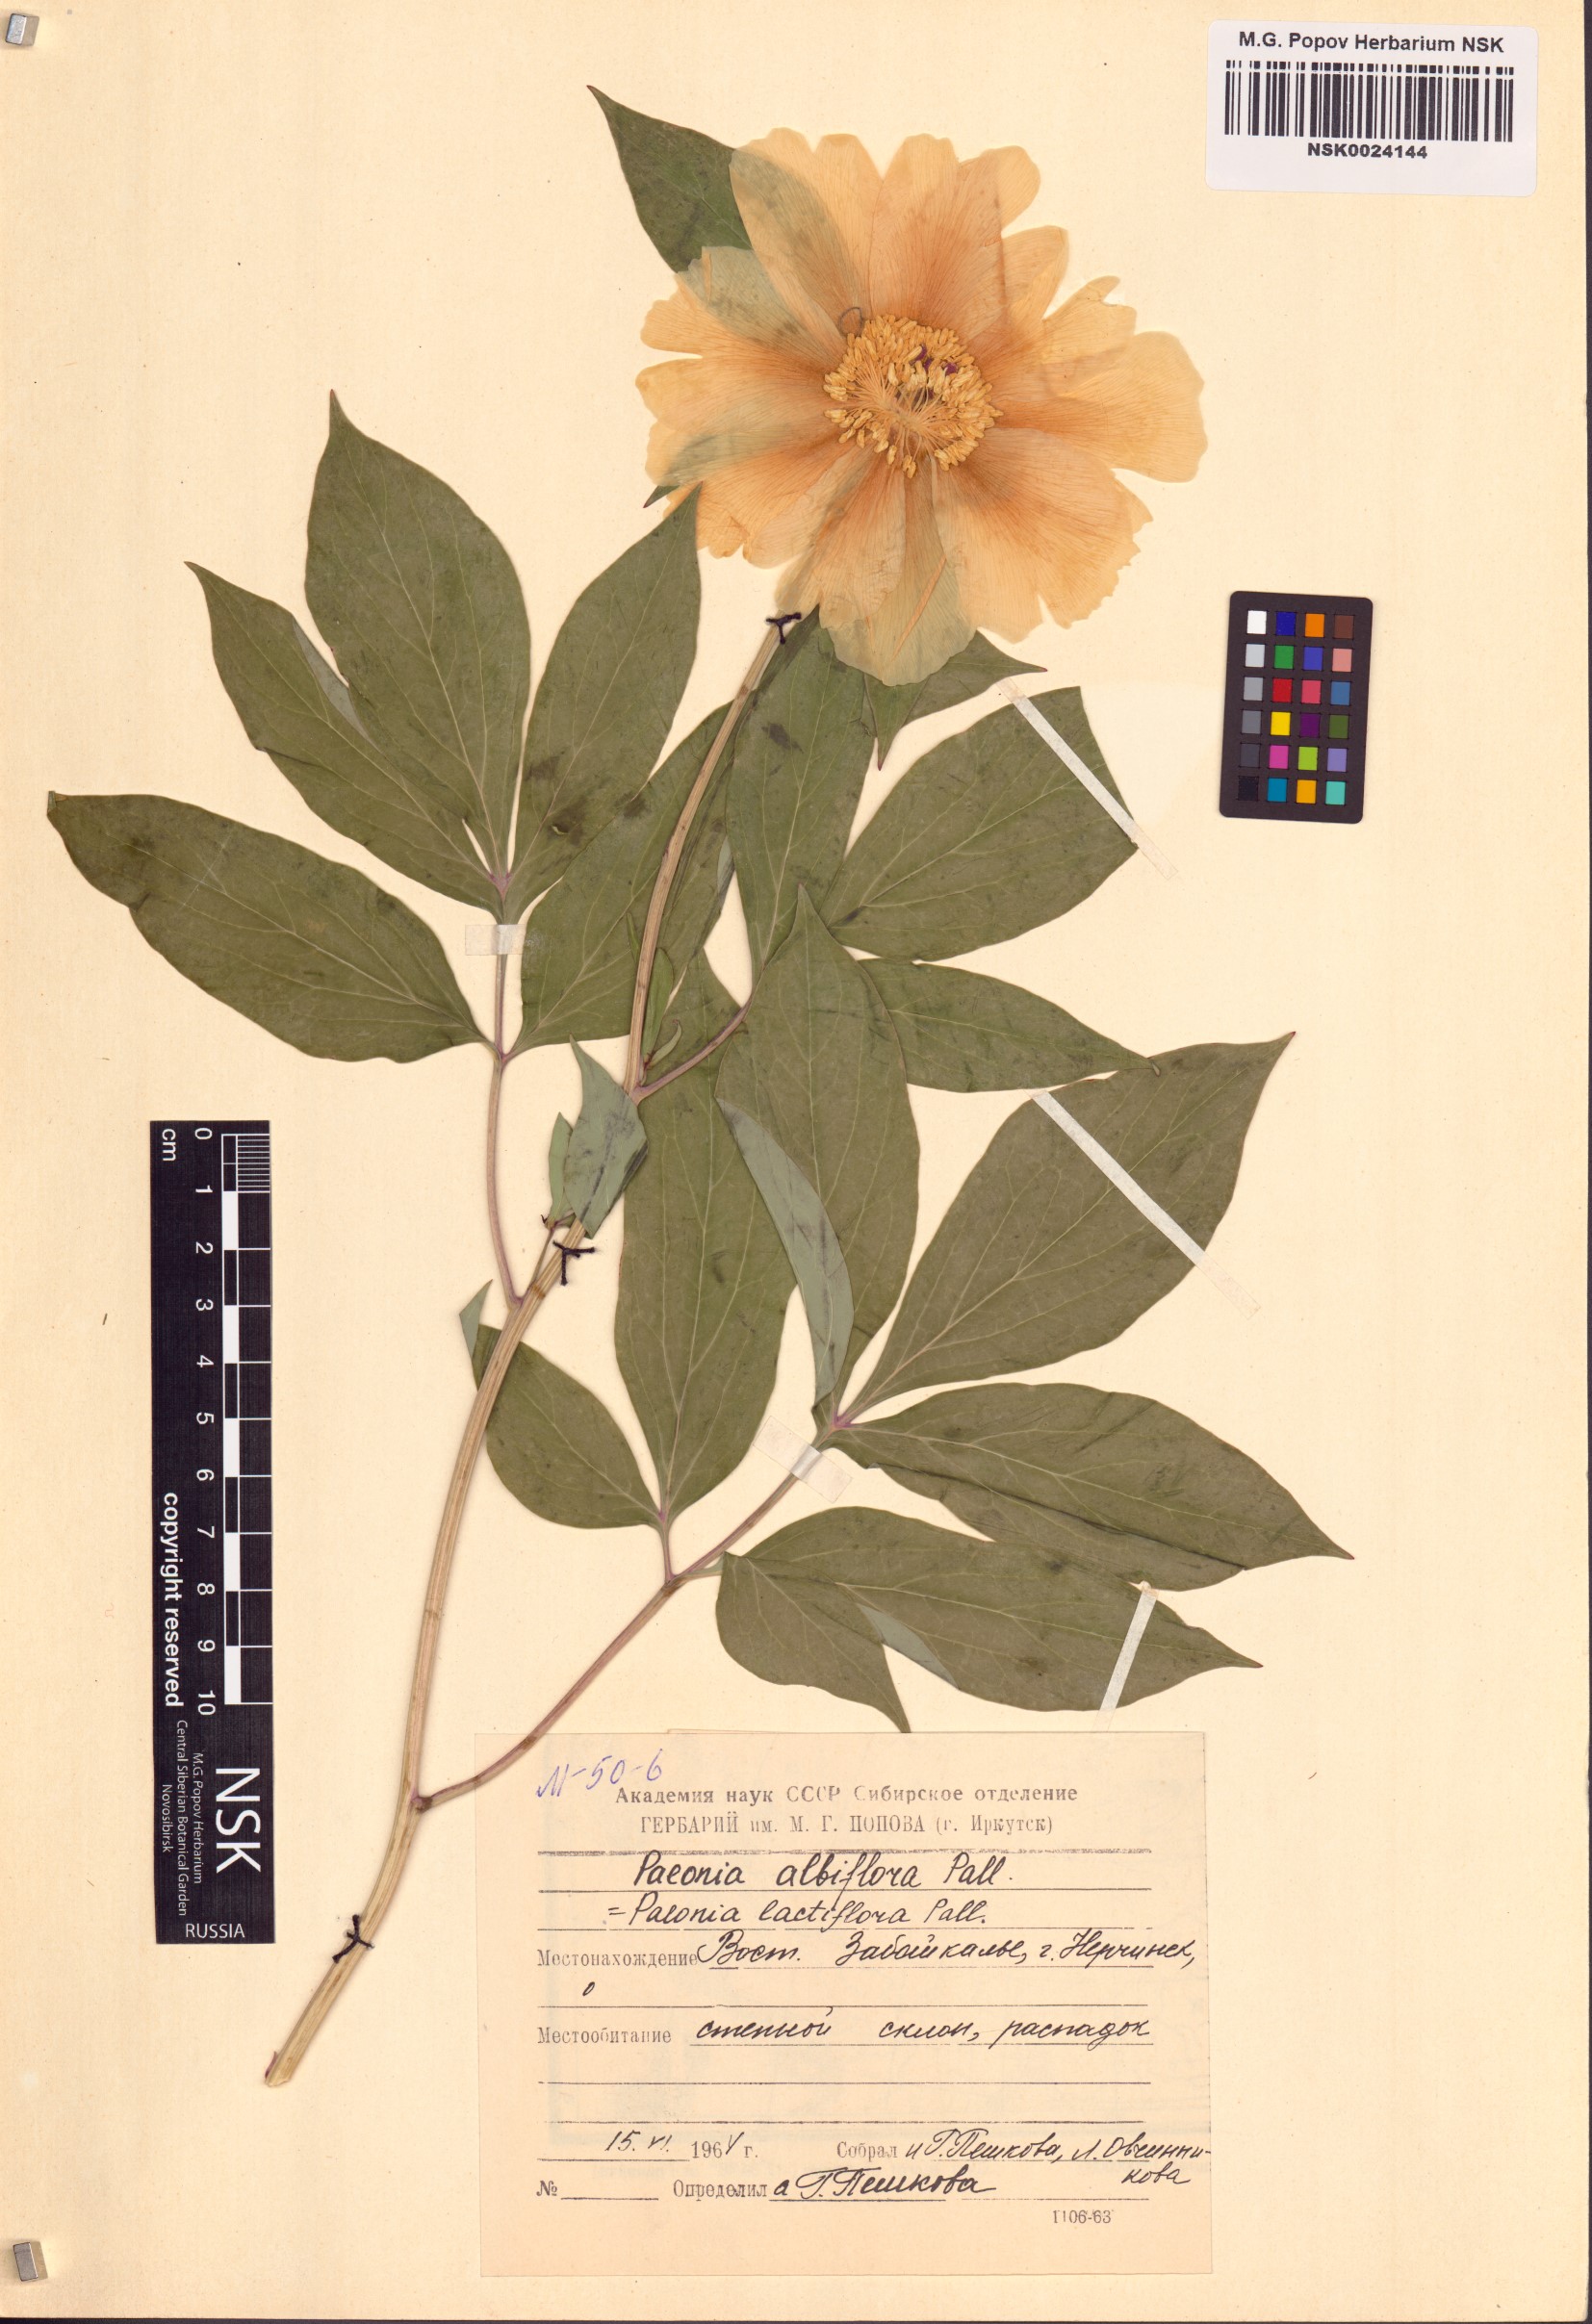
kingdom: Plantae
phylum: Tracheophyta
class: Magnoliopsida
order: Saxifragales
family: Paeoniaceae
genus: Paeonia
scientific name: Paeonia lactiflora
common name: Chinese peony
